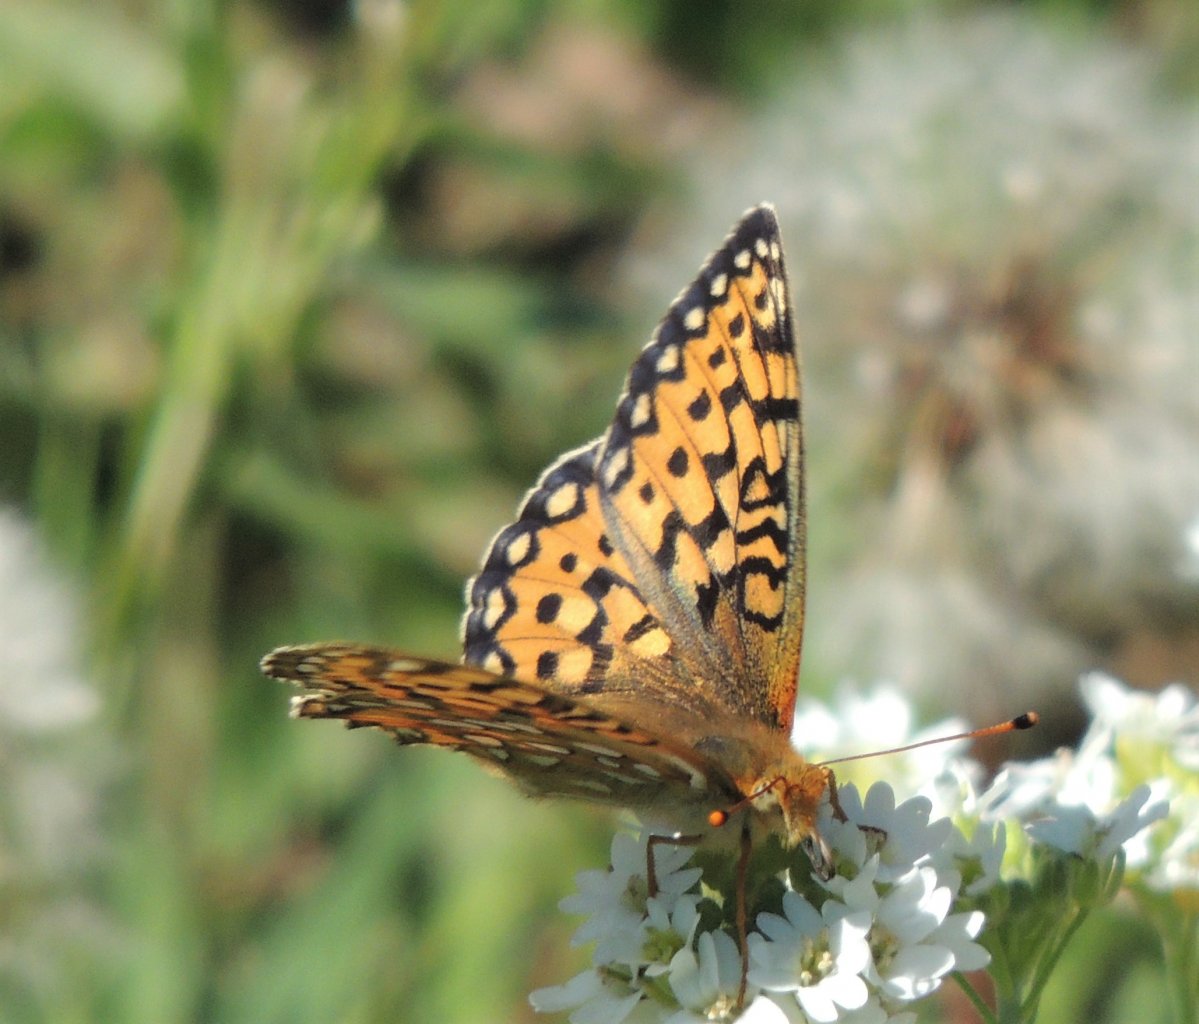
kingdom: Animalia
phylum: Arthropoda
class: Insecta
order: Lepidoptera
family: Nymphalidae
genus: Speyeria
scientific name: Speyeria mormonia
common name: Mormon Fritillary
